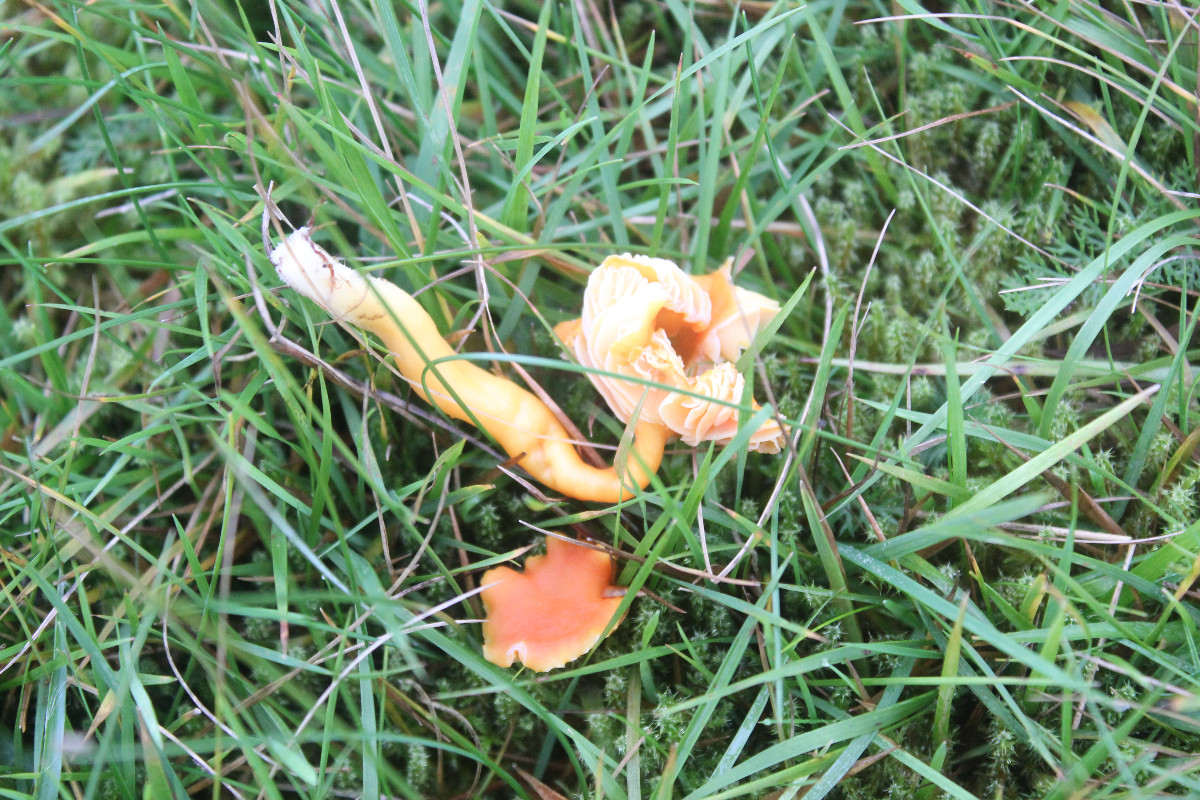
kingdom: Fungi
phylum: Basidiomycota
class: Agaricomycetes
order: Agaricales
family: Hygrophoraceae
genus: Hygrocybe
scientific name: Hygrocybe miniata
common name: mønje-vokshat
